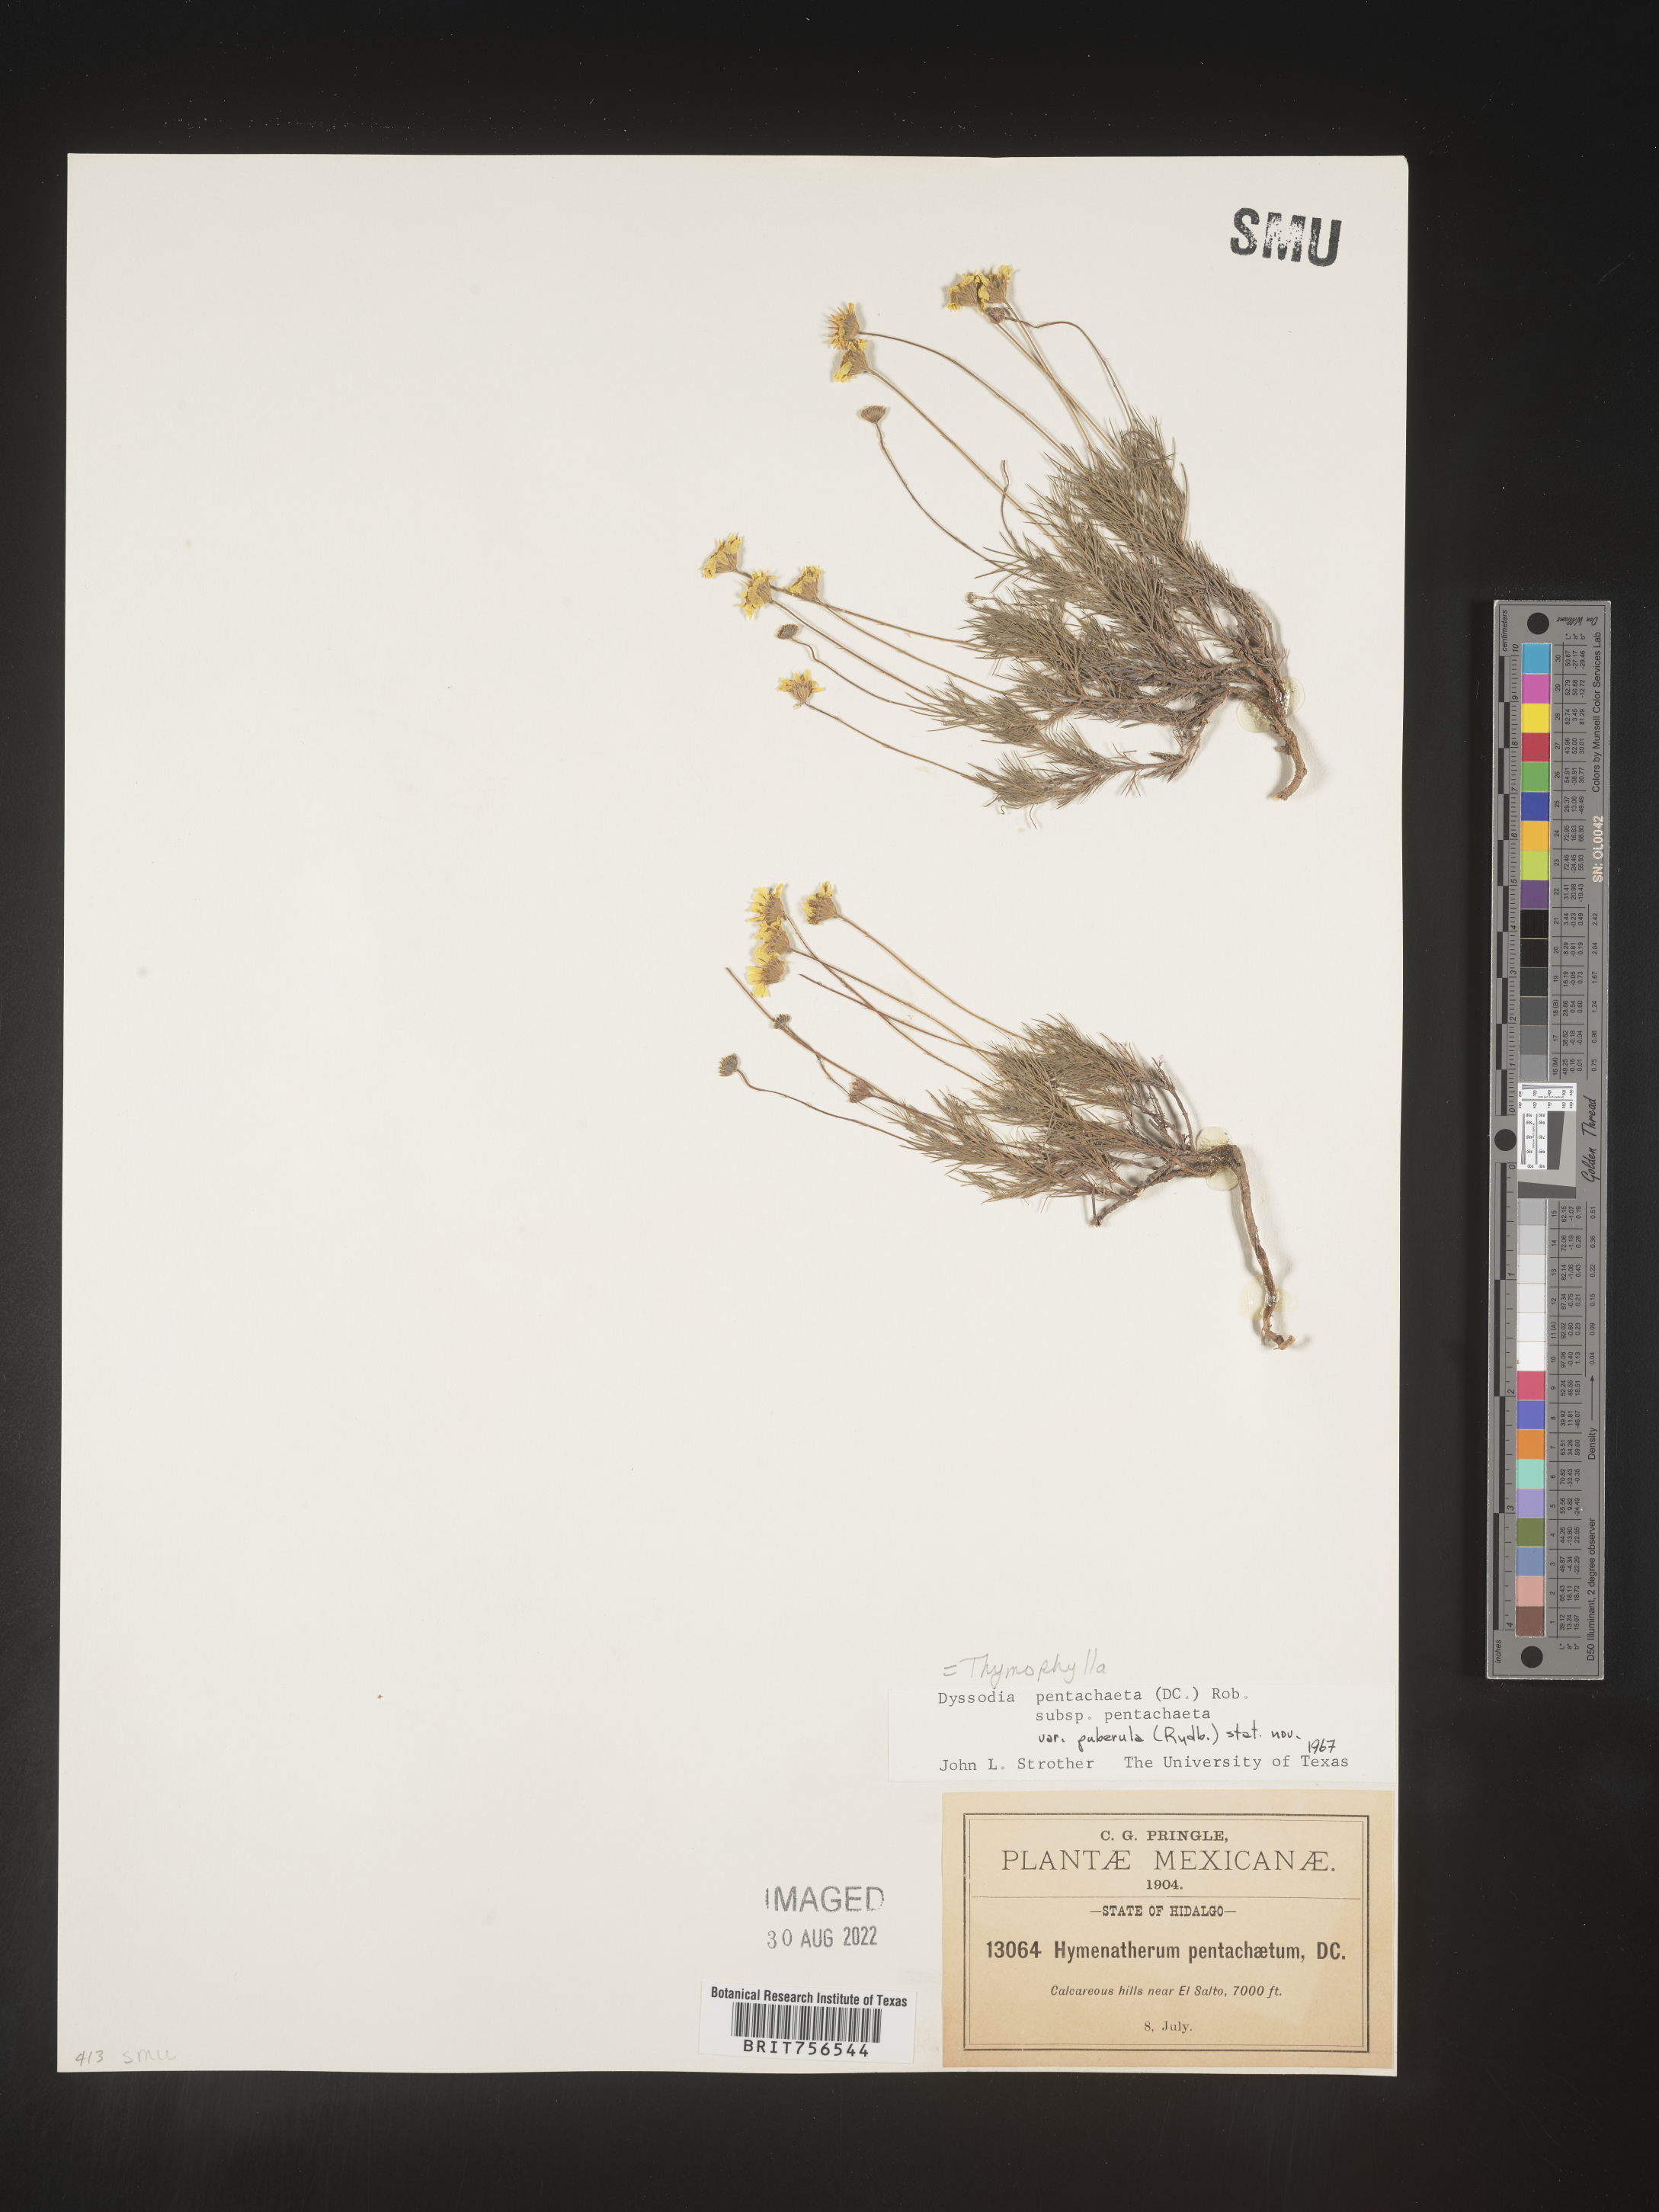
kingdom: Plantae
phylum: Tracheophyta
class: Magnoliopsida
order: Asterales
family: Asteraceae
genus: Thymophylla
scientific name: Thymophylla pentachaeta
